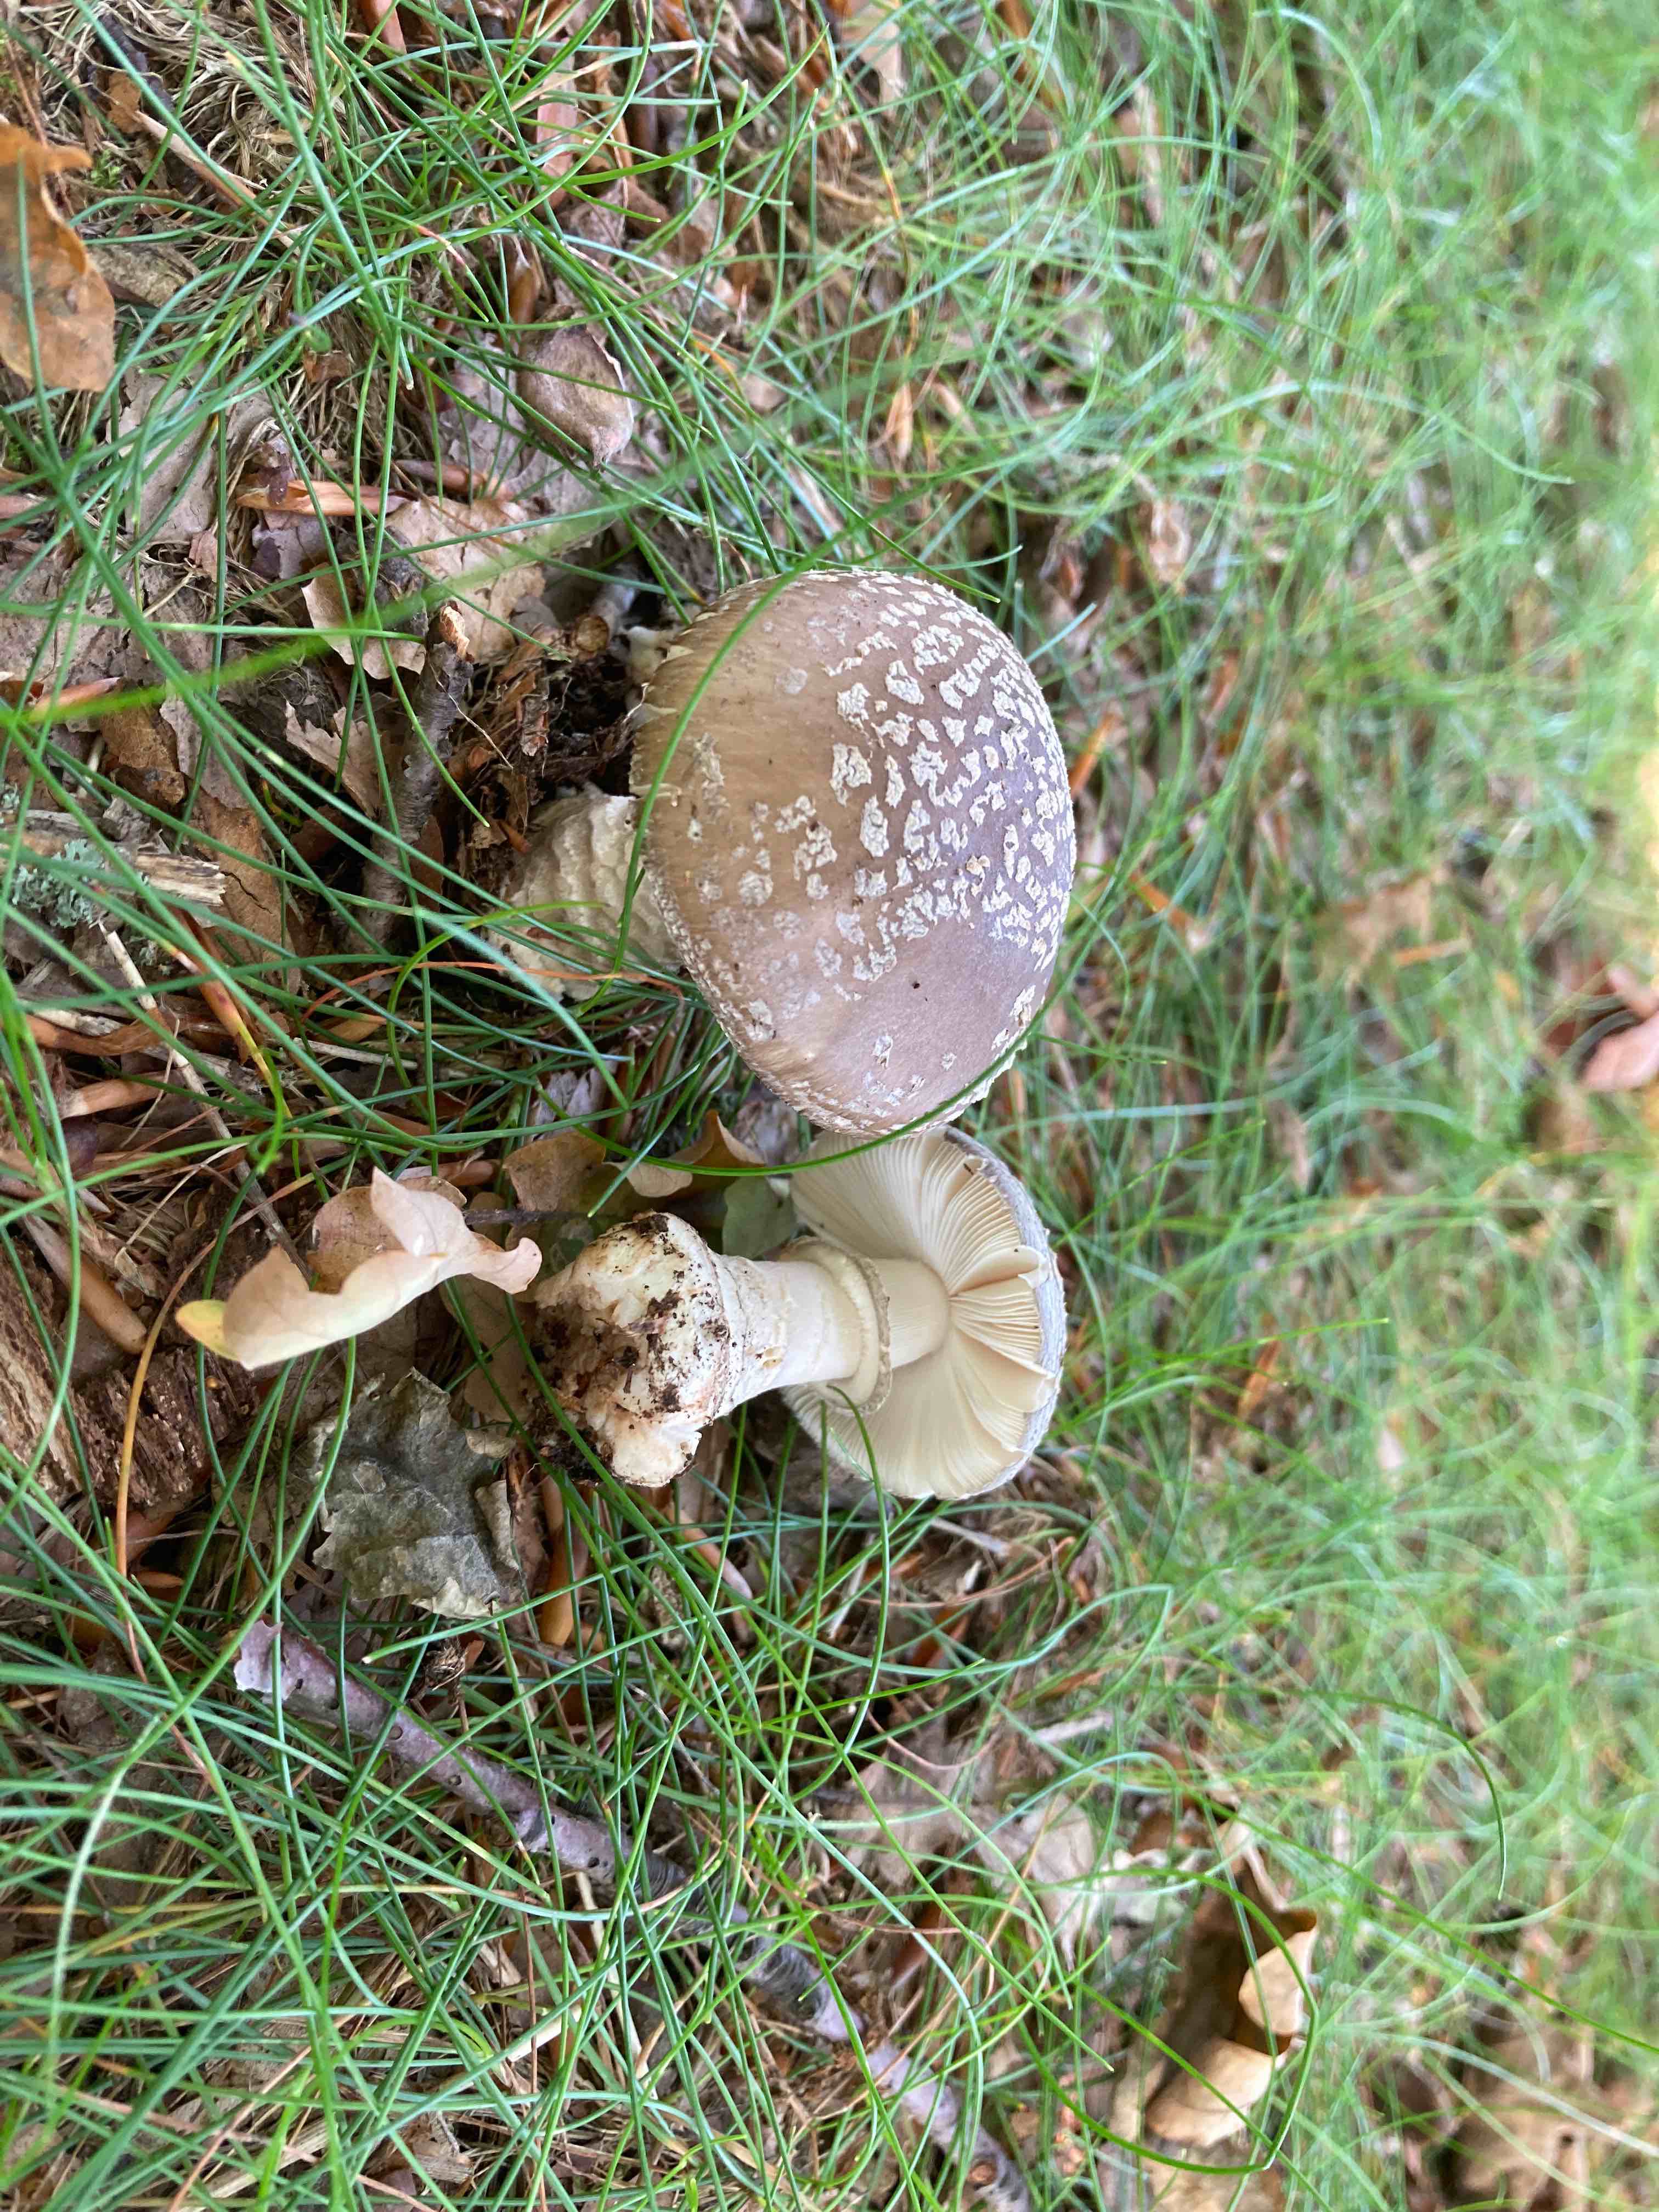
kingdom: Fungi
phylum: Basidiomycota
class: Agaricomycetes
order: Agaricales
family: Amanitaceae
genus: Amanita
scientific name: Amanita
